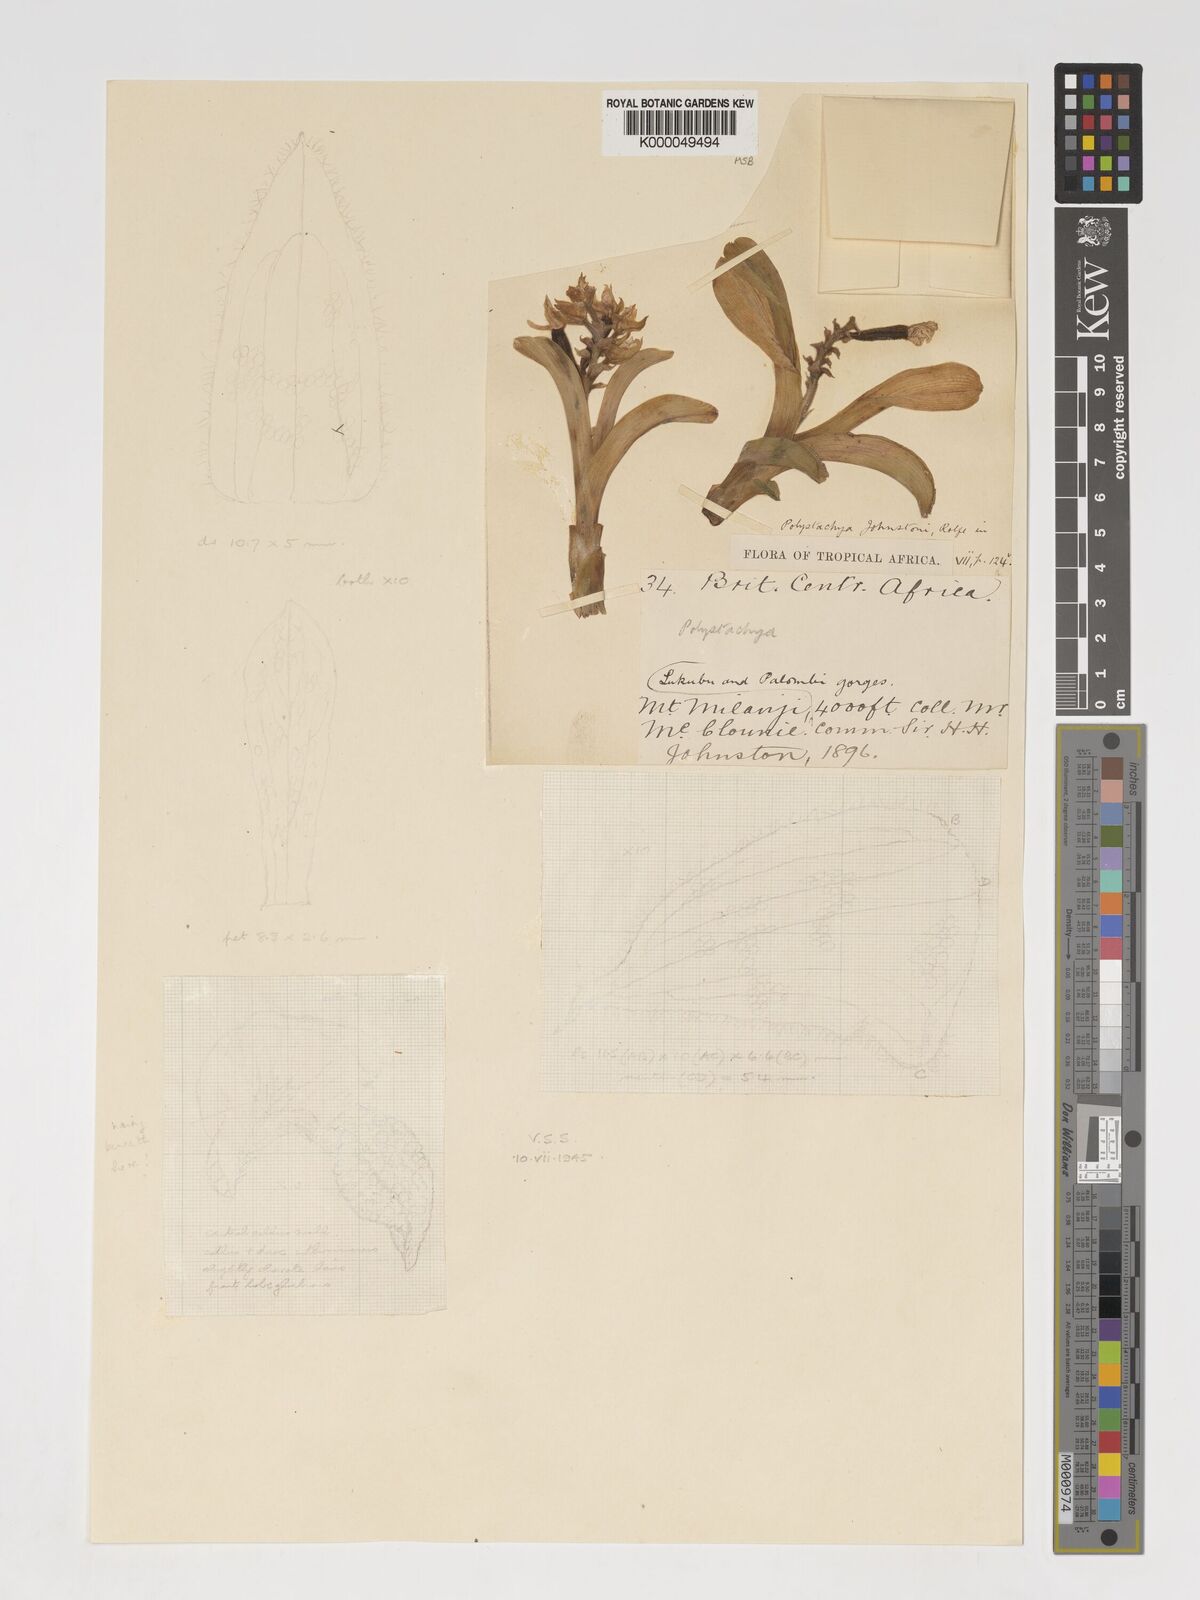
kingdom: Plantae
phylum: Tracheophyta
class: Liliopsida
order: Asparagales
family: Orchidaceae
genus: Polystachya
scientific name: Polystachya johnstonii
